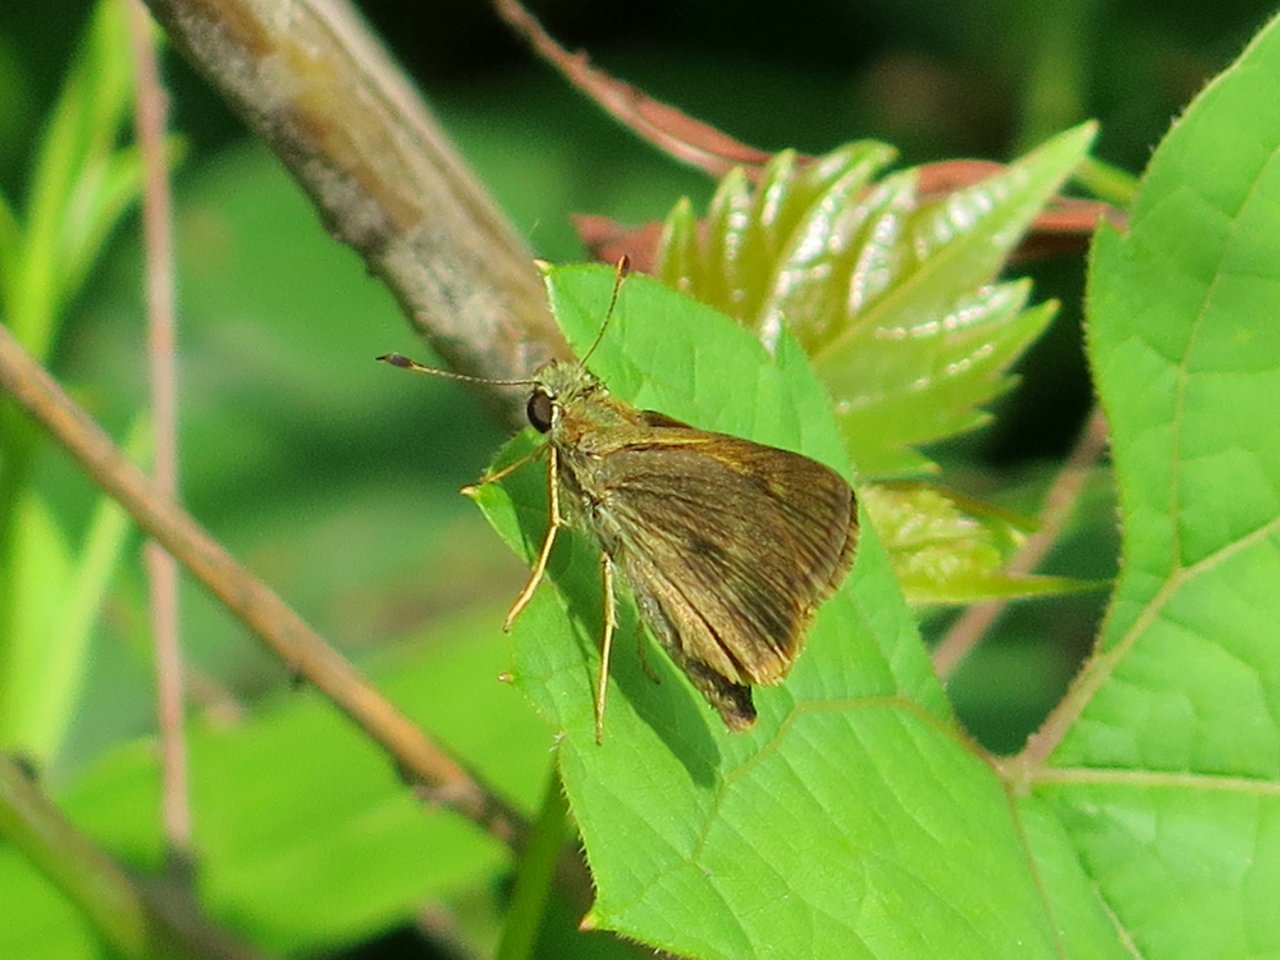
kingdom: Animalia
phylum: Arthropoda
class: Insecta
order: Lepidoptera
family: Hesperiidae
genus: Polites
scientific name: Polites egeremet
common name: Northern Broken-Dash
